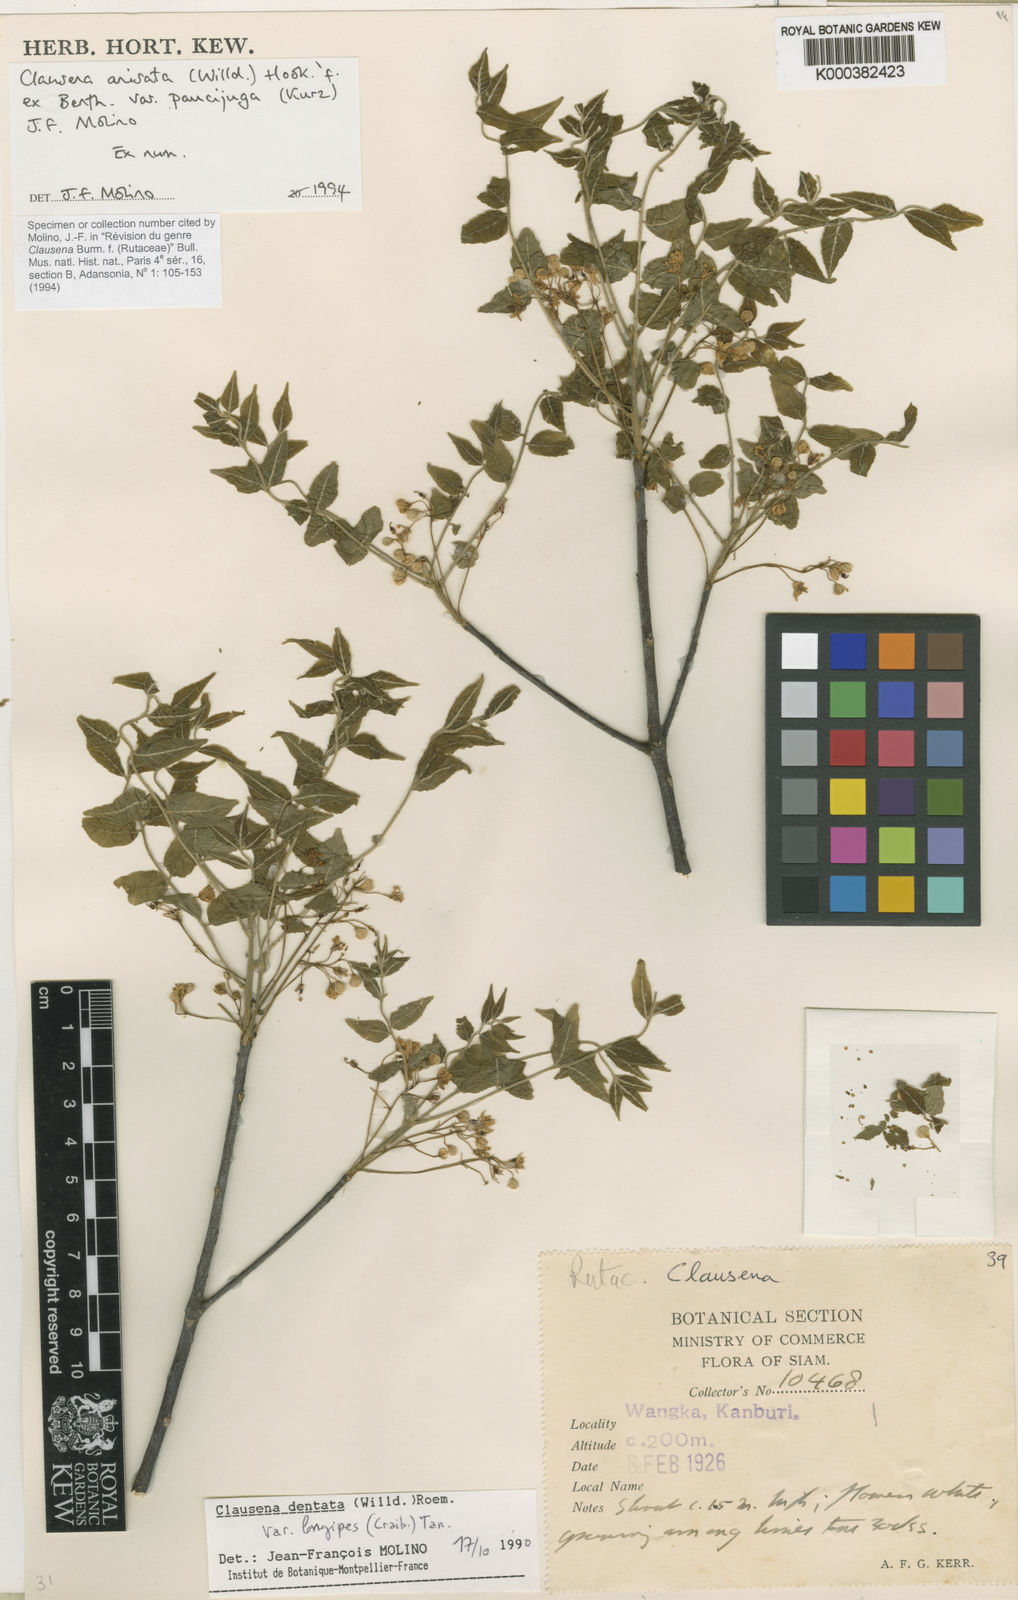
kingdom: Plantae
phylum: Tracheophyta
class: Magnoliopsida
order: Sapindales
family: Rutaceae
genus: Clausena
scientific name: Clausena anisata
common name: Horsewood
